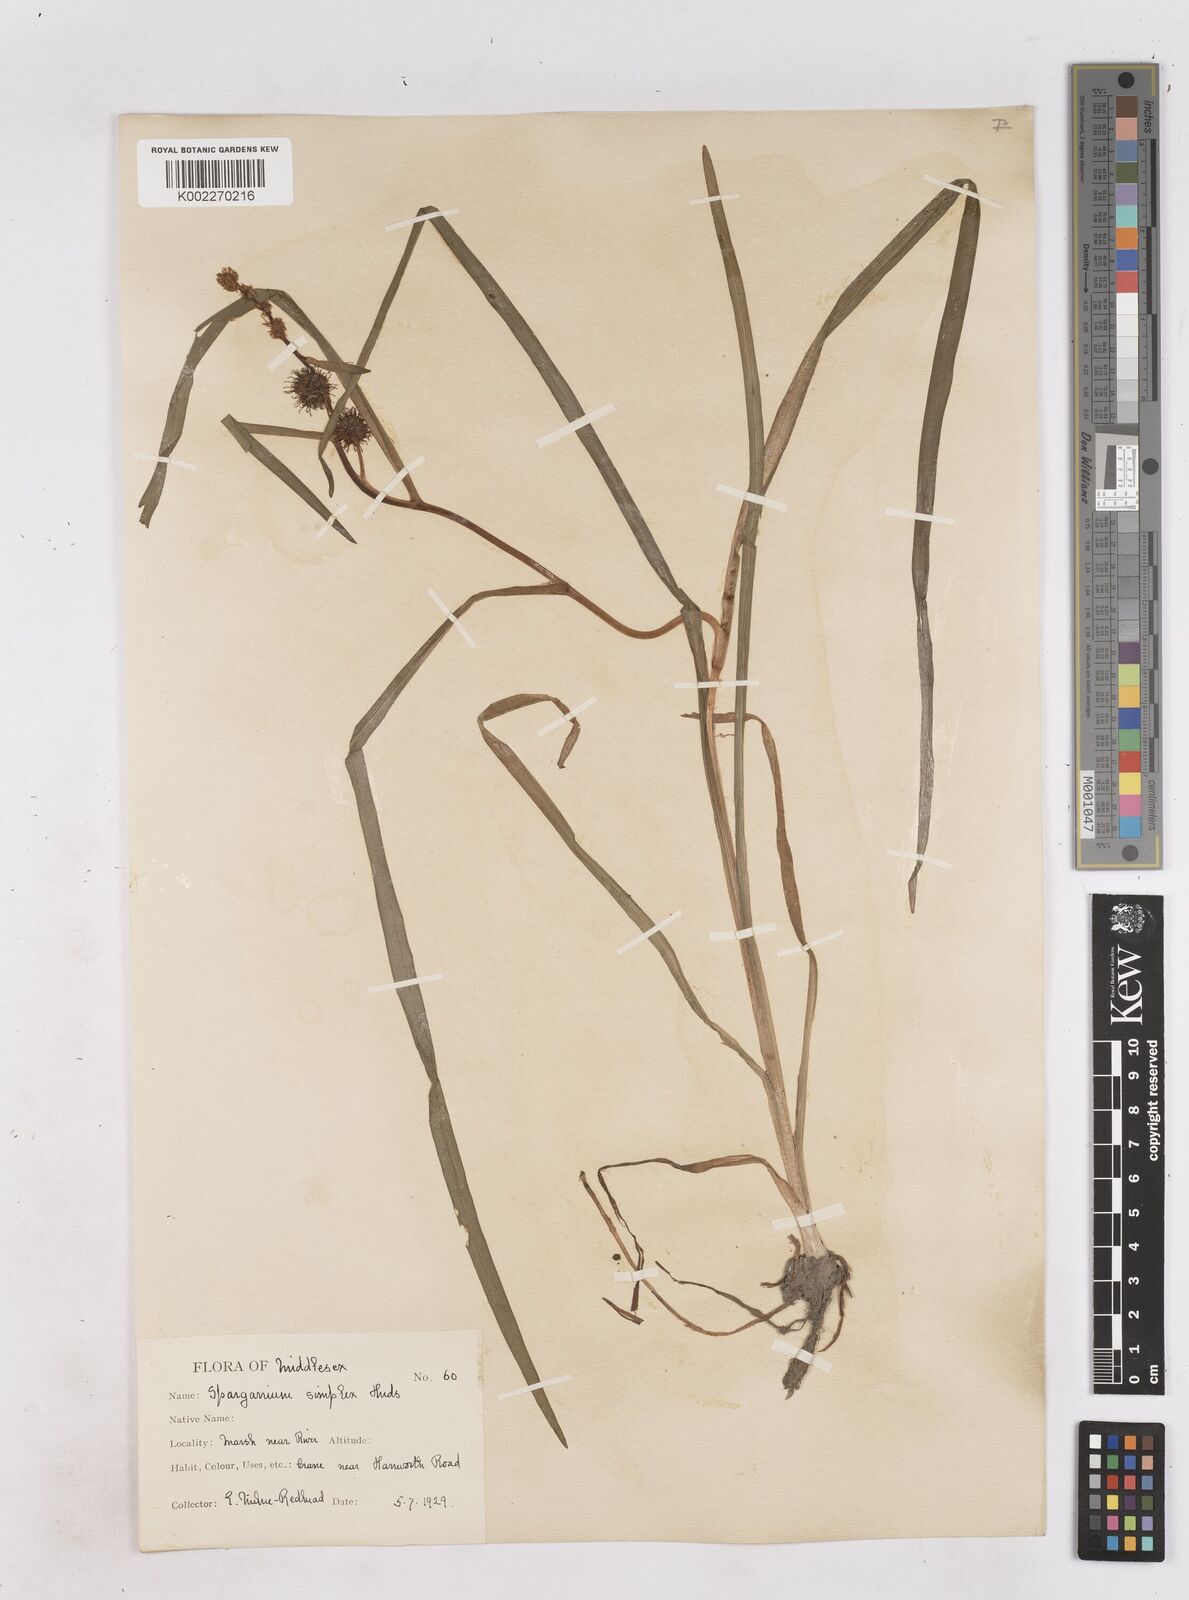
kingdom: Plantae
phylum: Tracheophyta
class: Liliopsida
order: Poales
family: Typhaceae
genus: Sparganium
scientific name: Sparganium emersum
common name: Unbranched bur-reed
